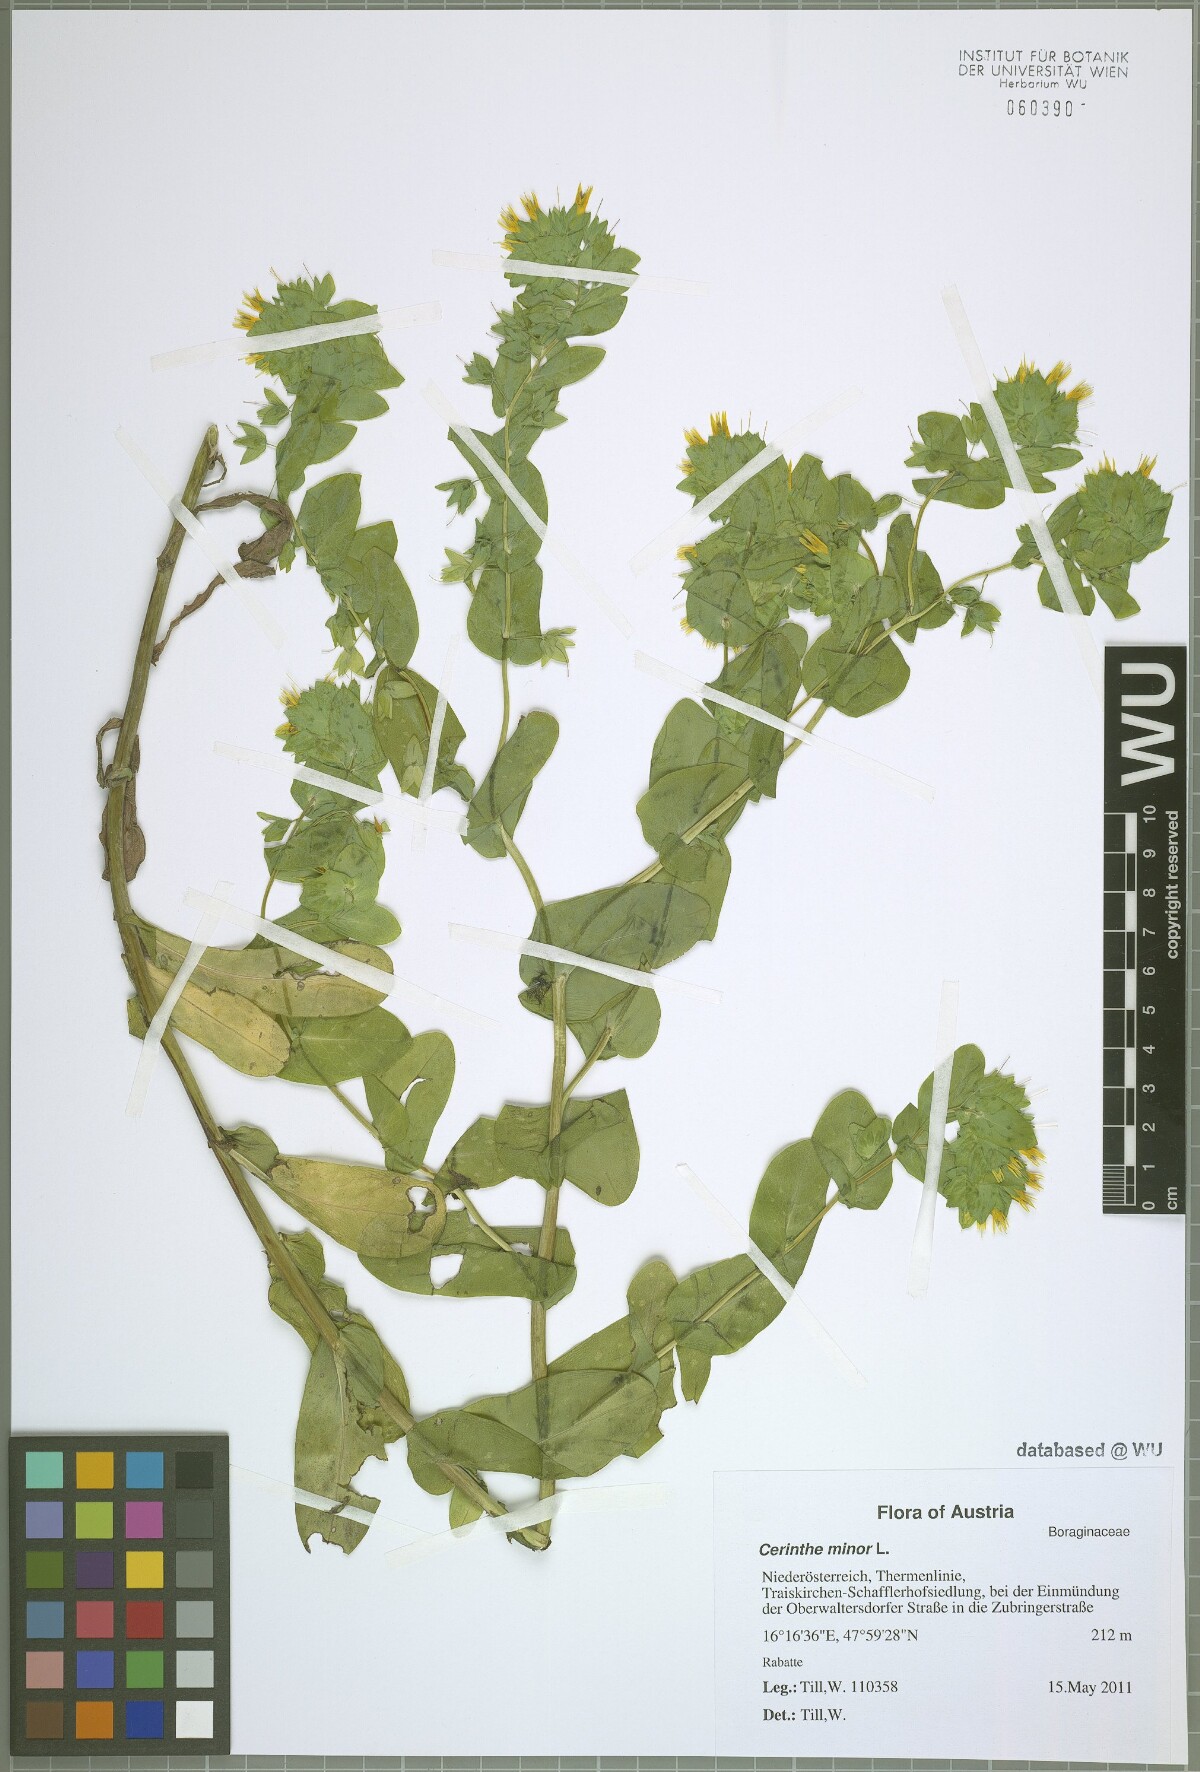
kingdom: Plantae
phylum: Tracheophyta
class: Magnoliopsida
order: Boraginales
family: Boraginaceae
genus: Cerinthe
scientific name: Cerinthe minor
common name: Lesser honeywort
